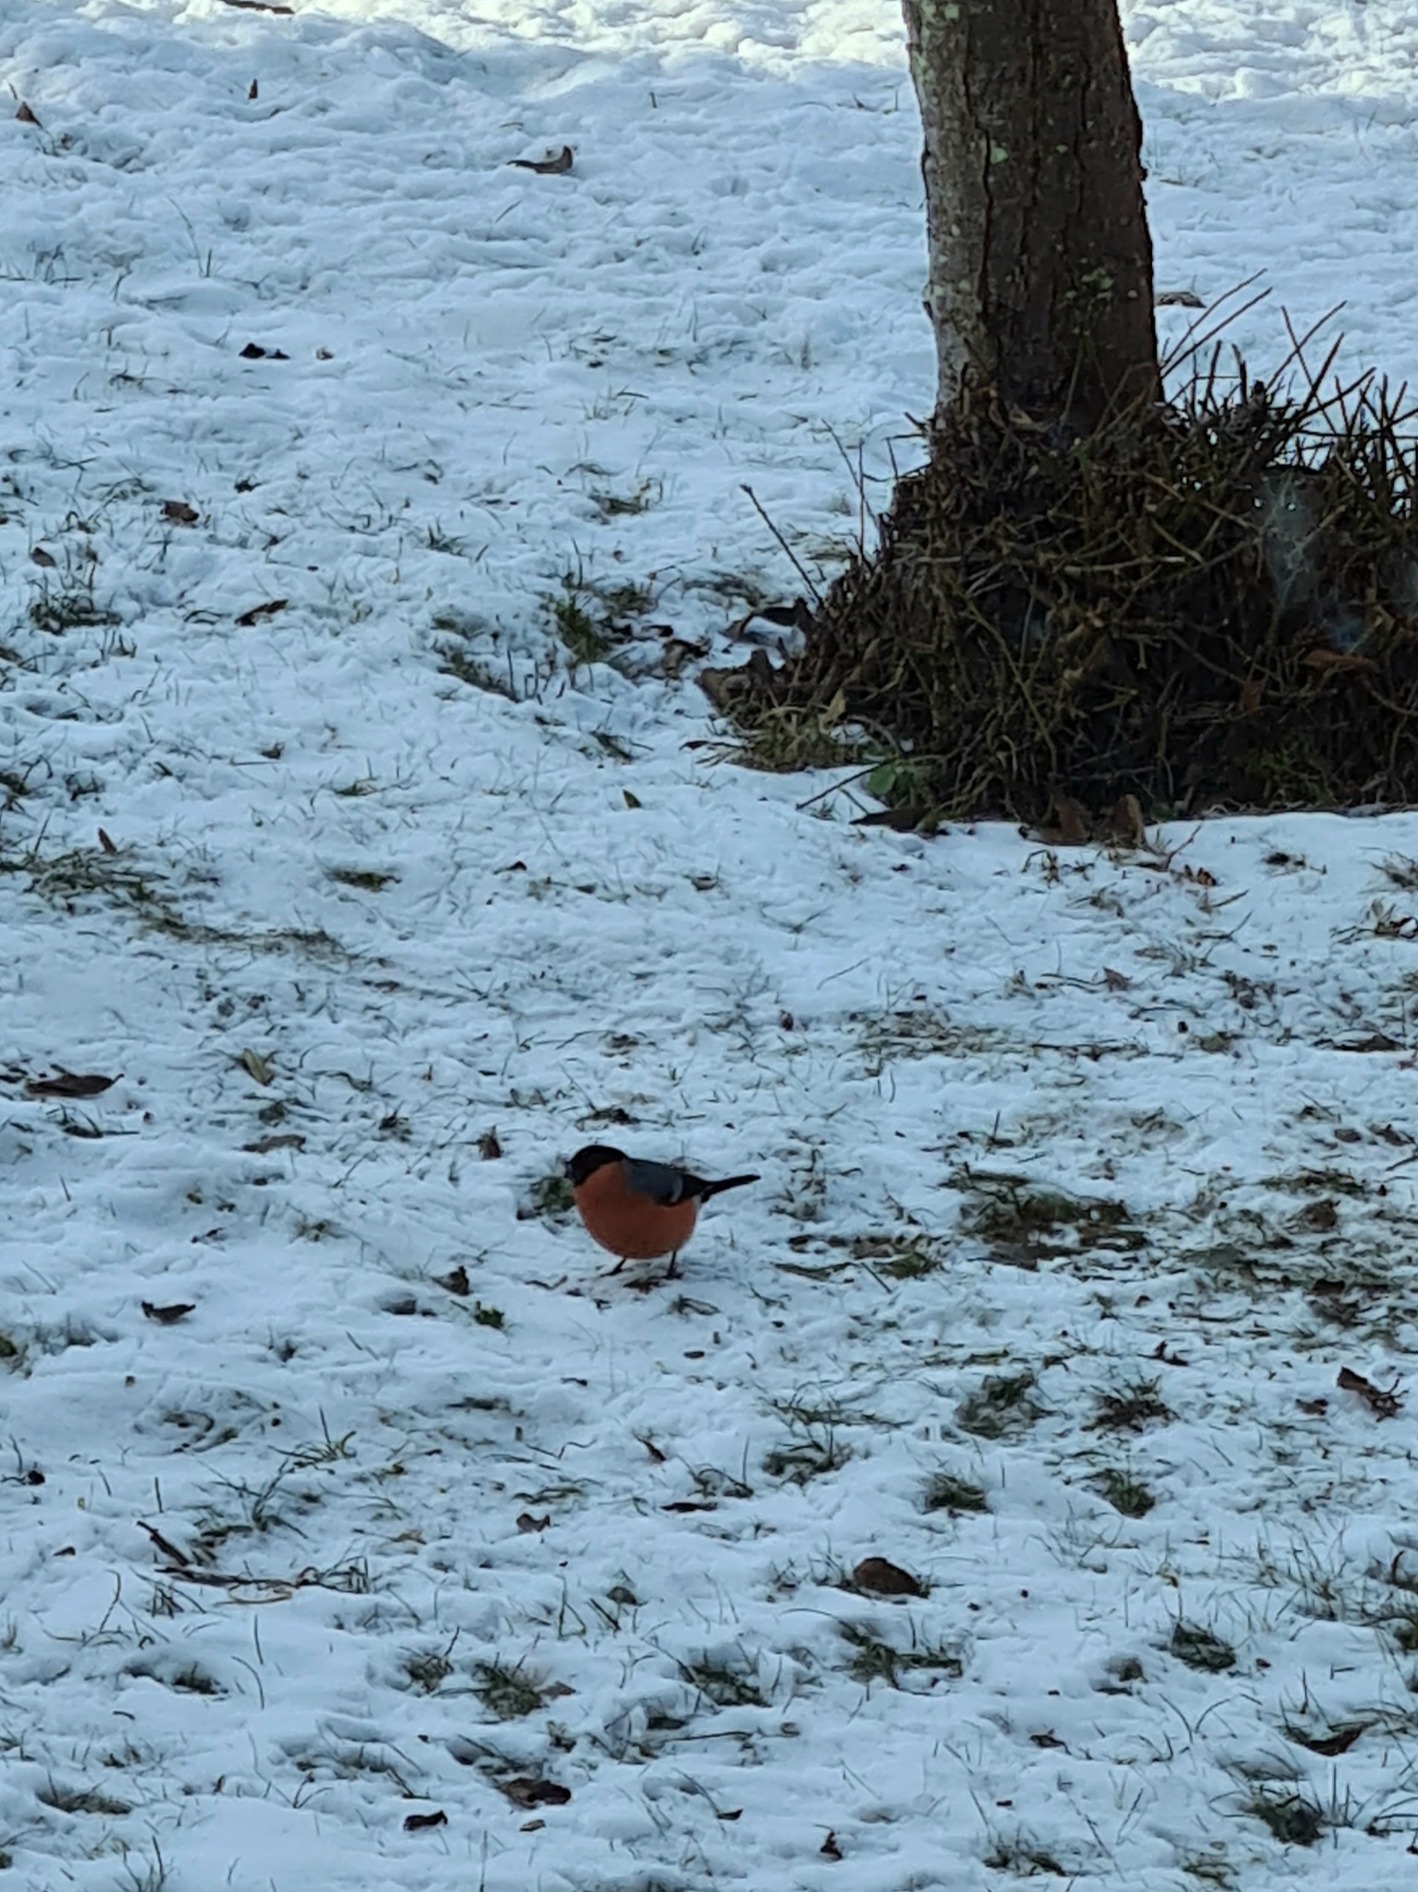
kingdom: Animalia
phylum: Chordata
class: Aves
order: Passeriformes
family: Fringillidae
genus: Pyrrhula
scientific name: Pyrrhula pyrrhula
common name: Dompap
